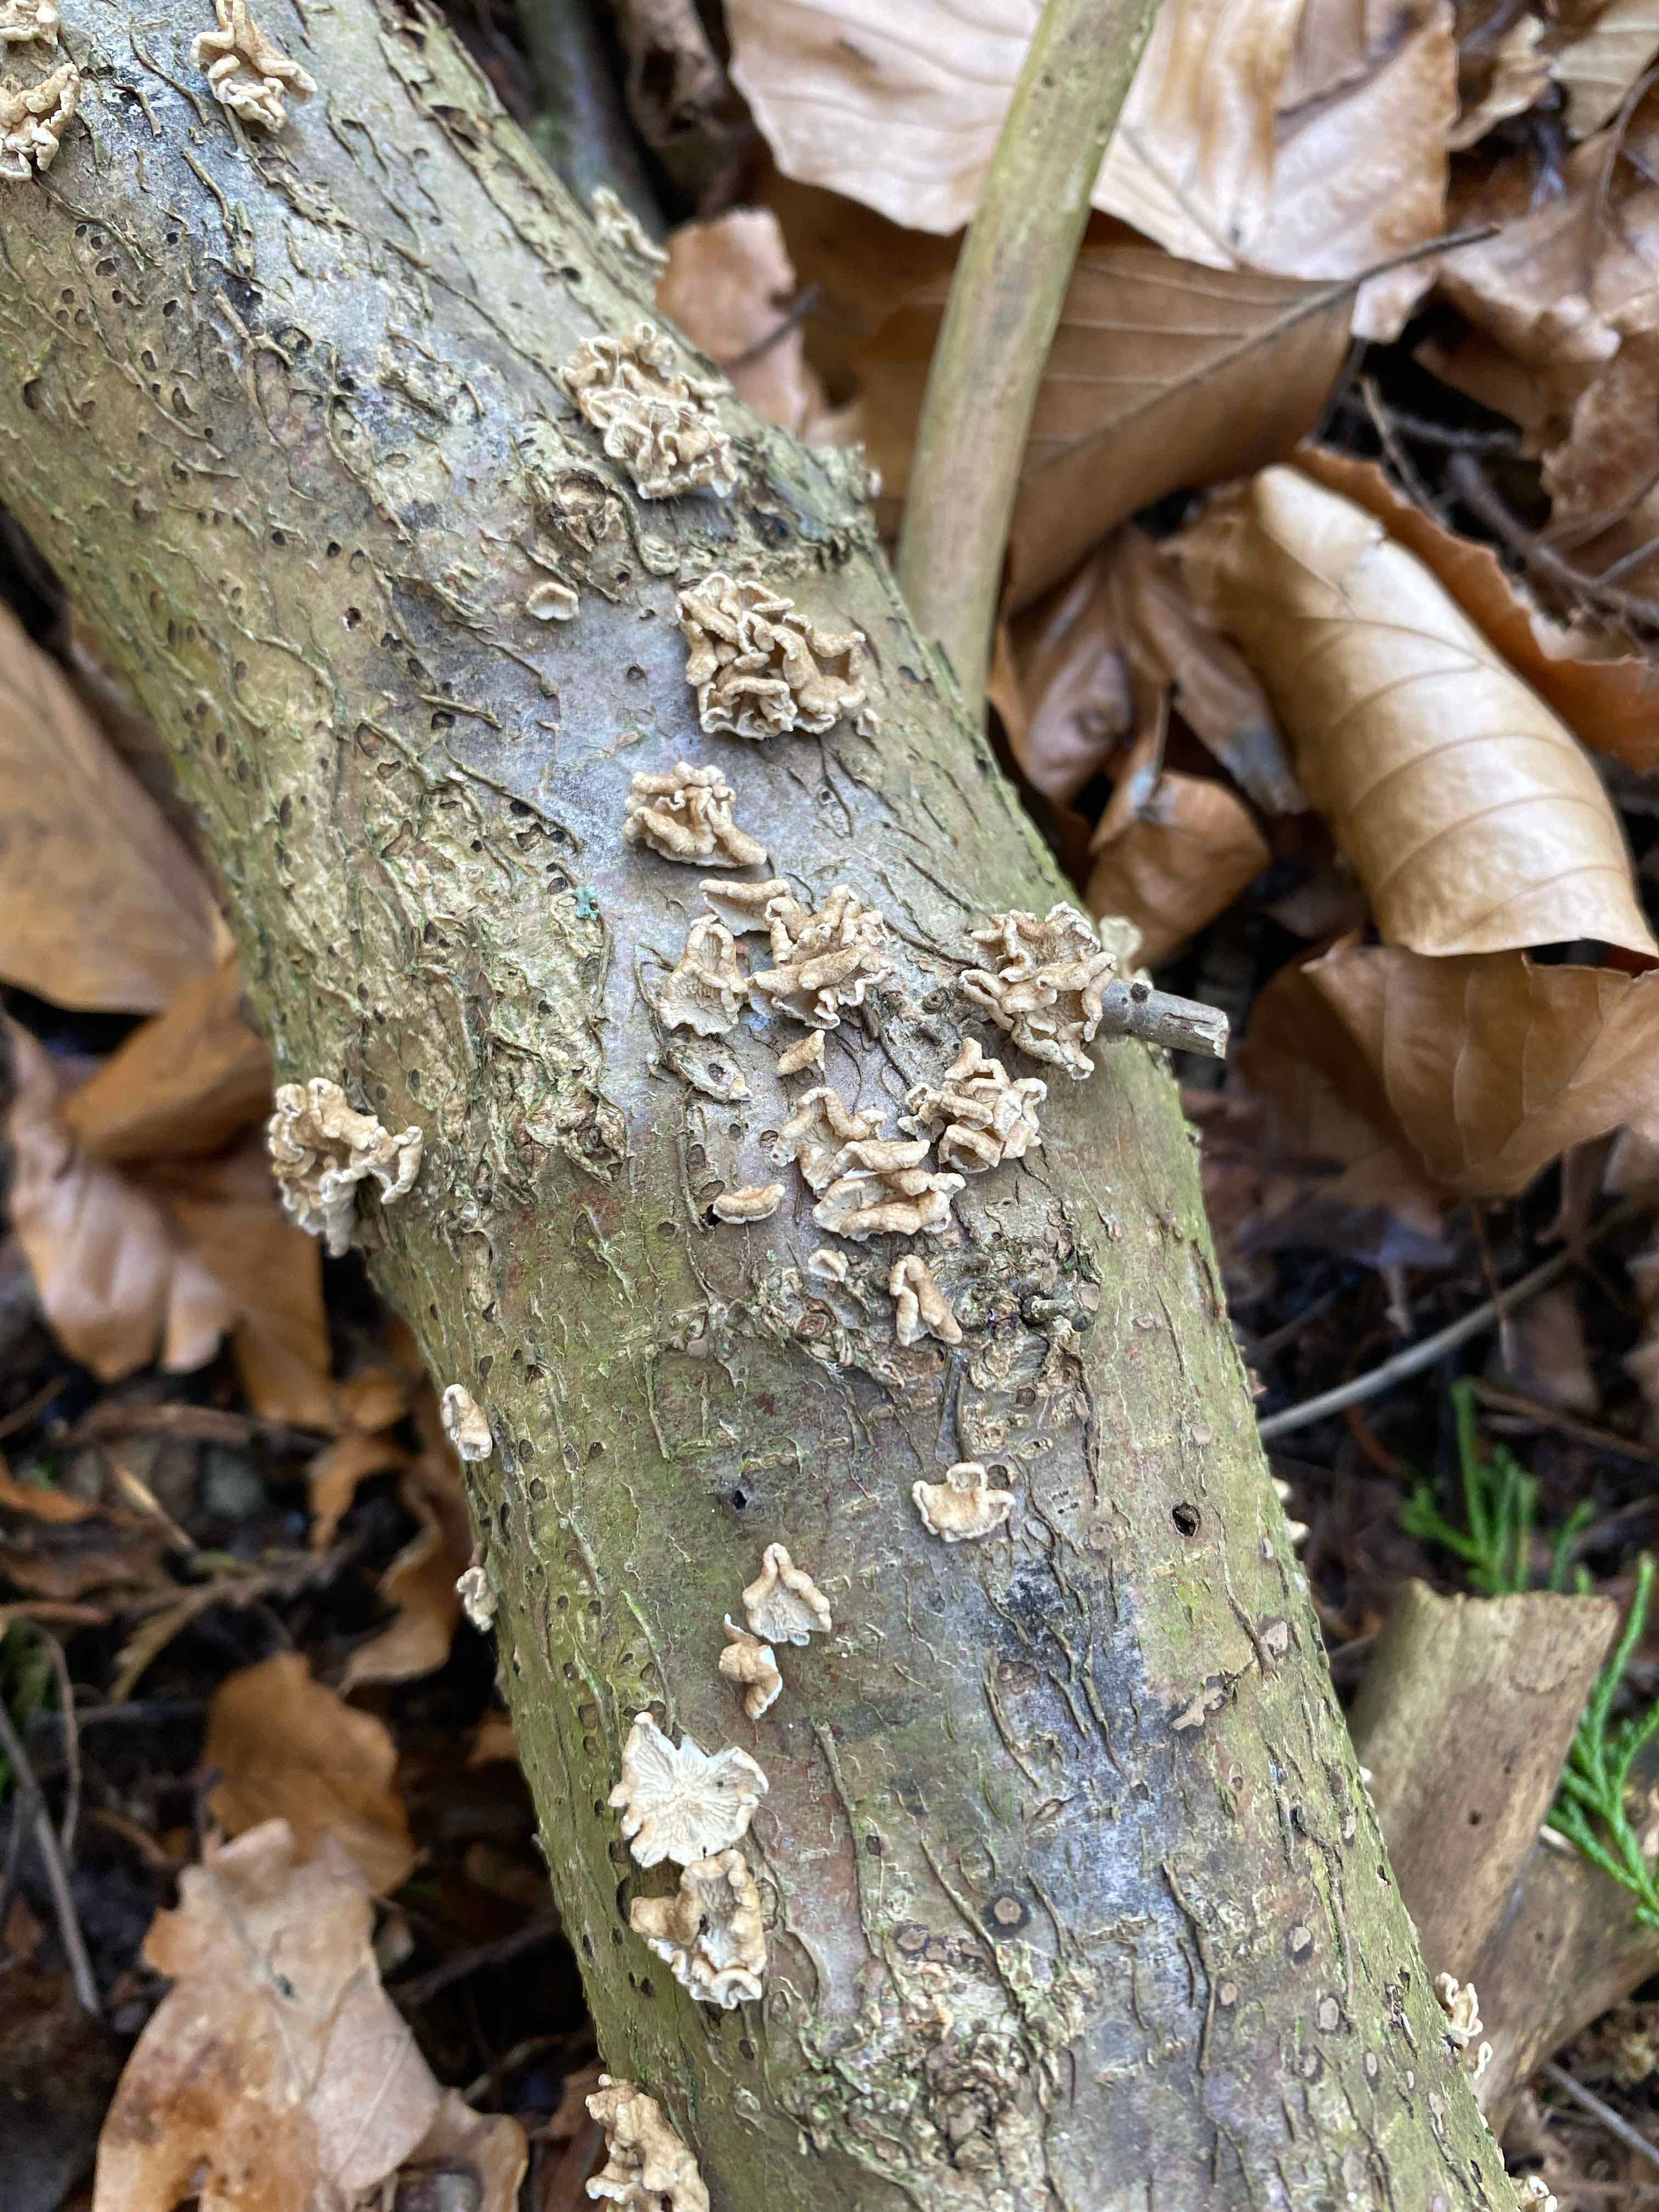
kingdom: Fungi
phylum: Basidiomycota
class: Agaricomycetes
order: Amylocorticiales
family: Amylocorticiaceae
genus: Plicaturopsis
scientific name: Plicaturopsis crispa
